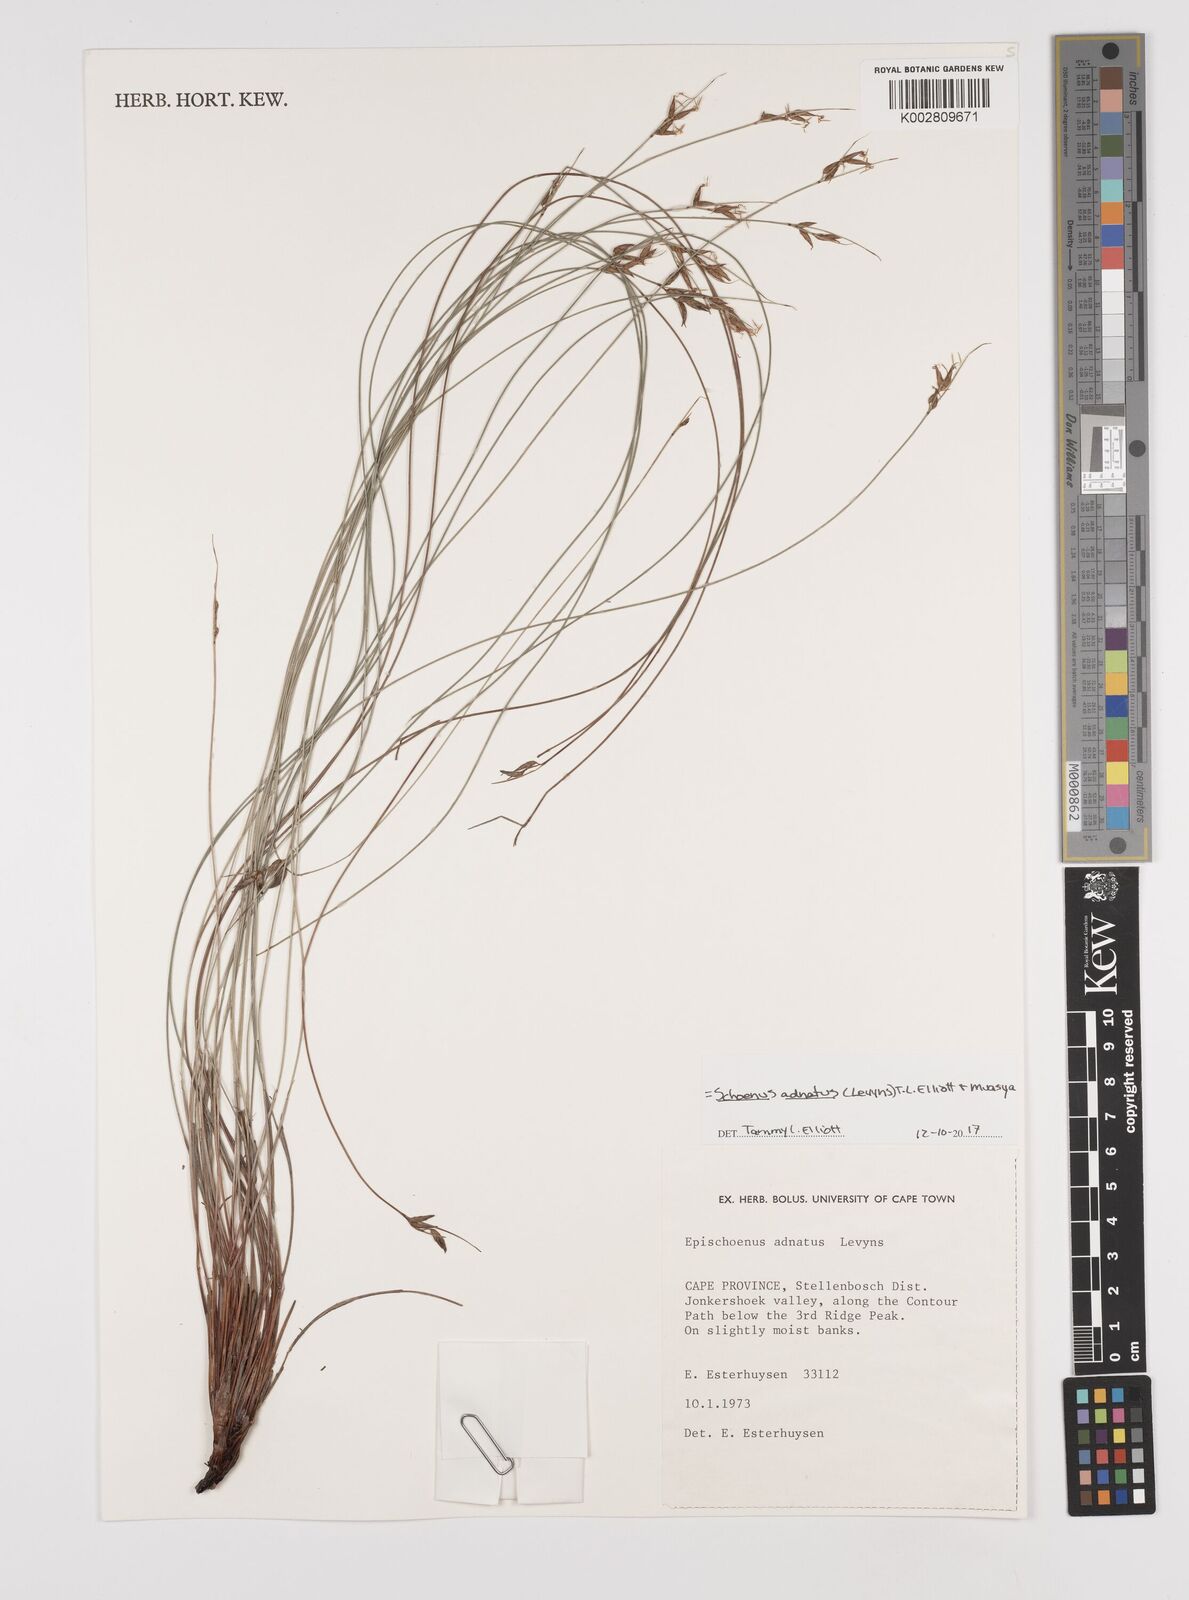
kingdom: Plantae
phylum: Tracheophyta
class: Liliopsida
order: Poales
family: Cyperaceae
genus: Schoenus
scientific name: Schoenus adnatus
